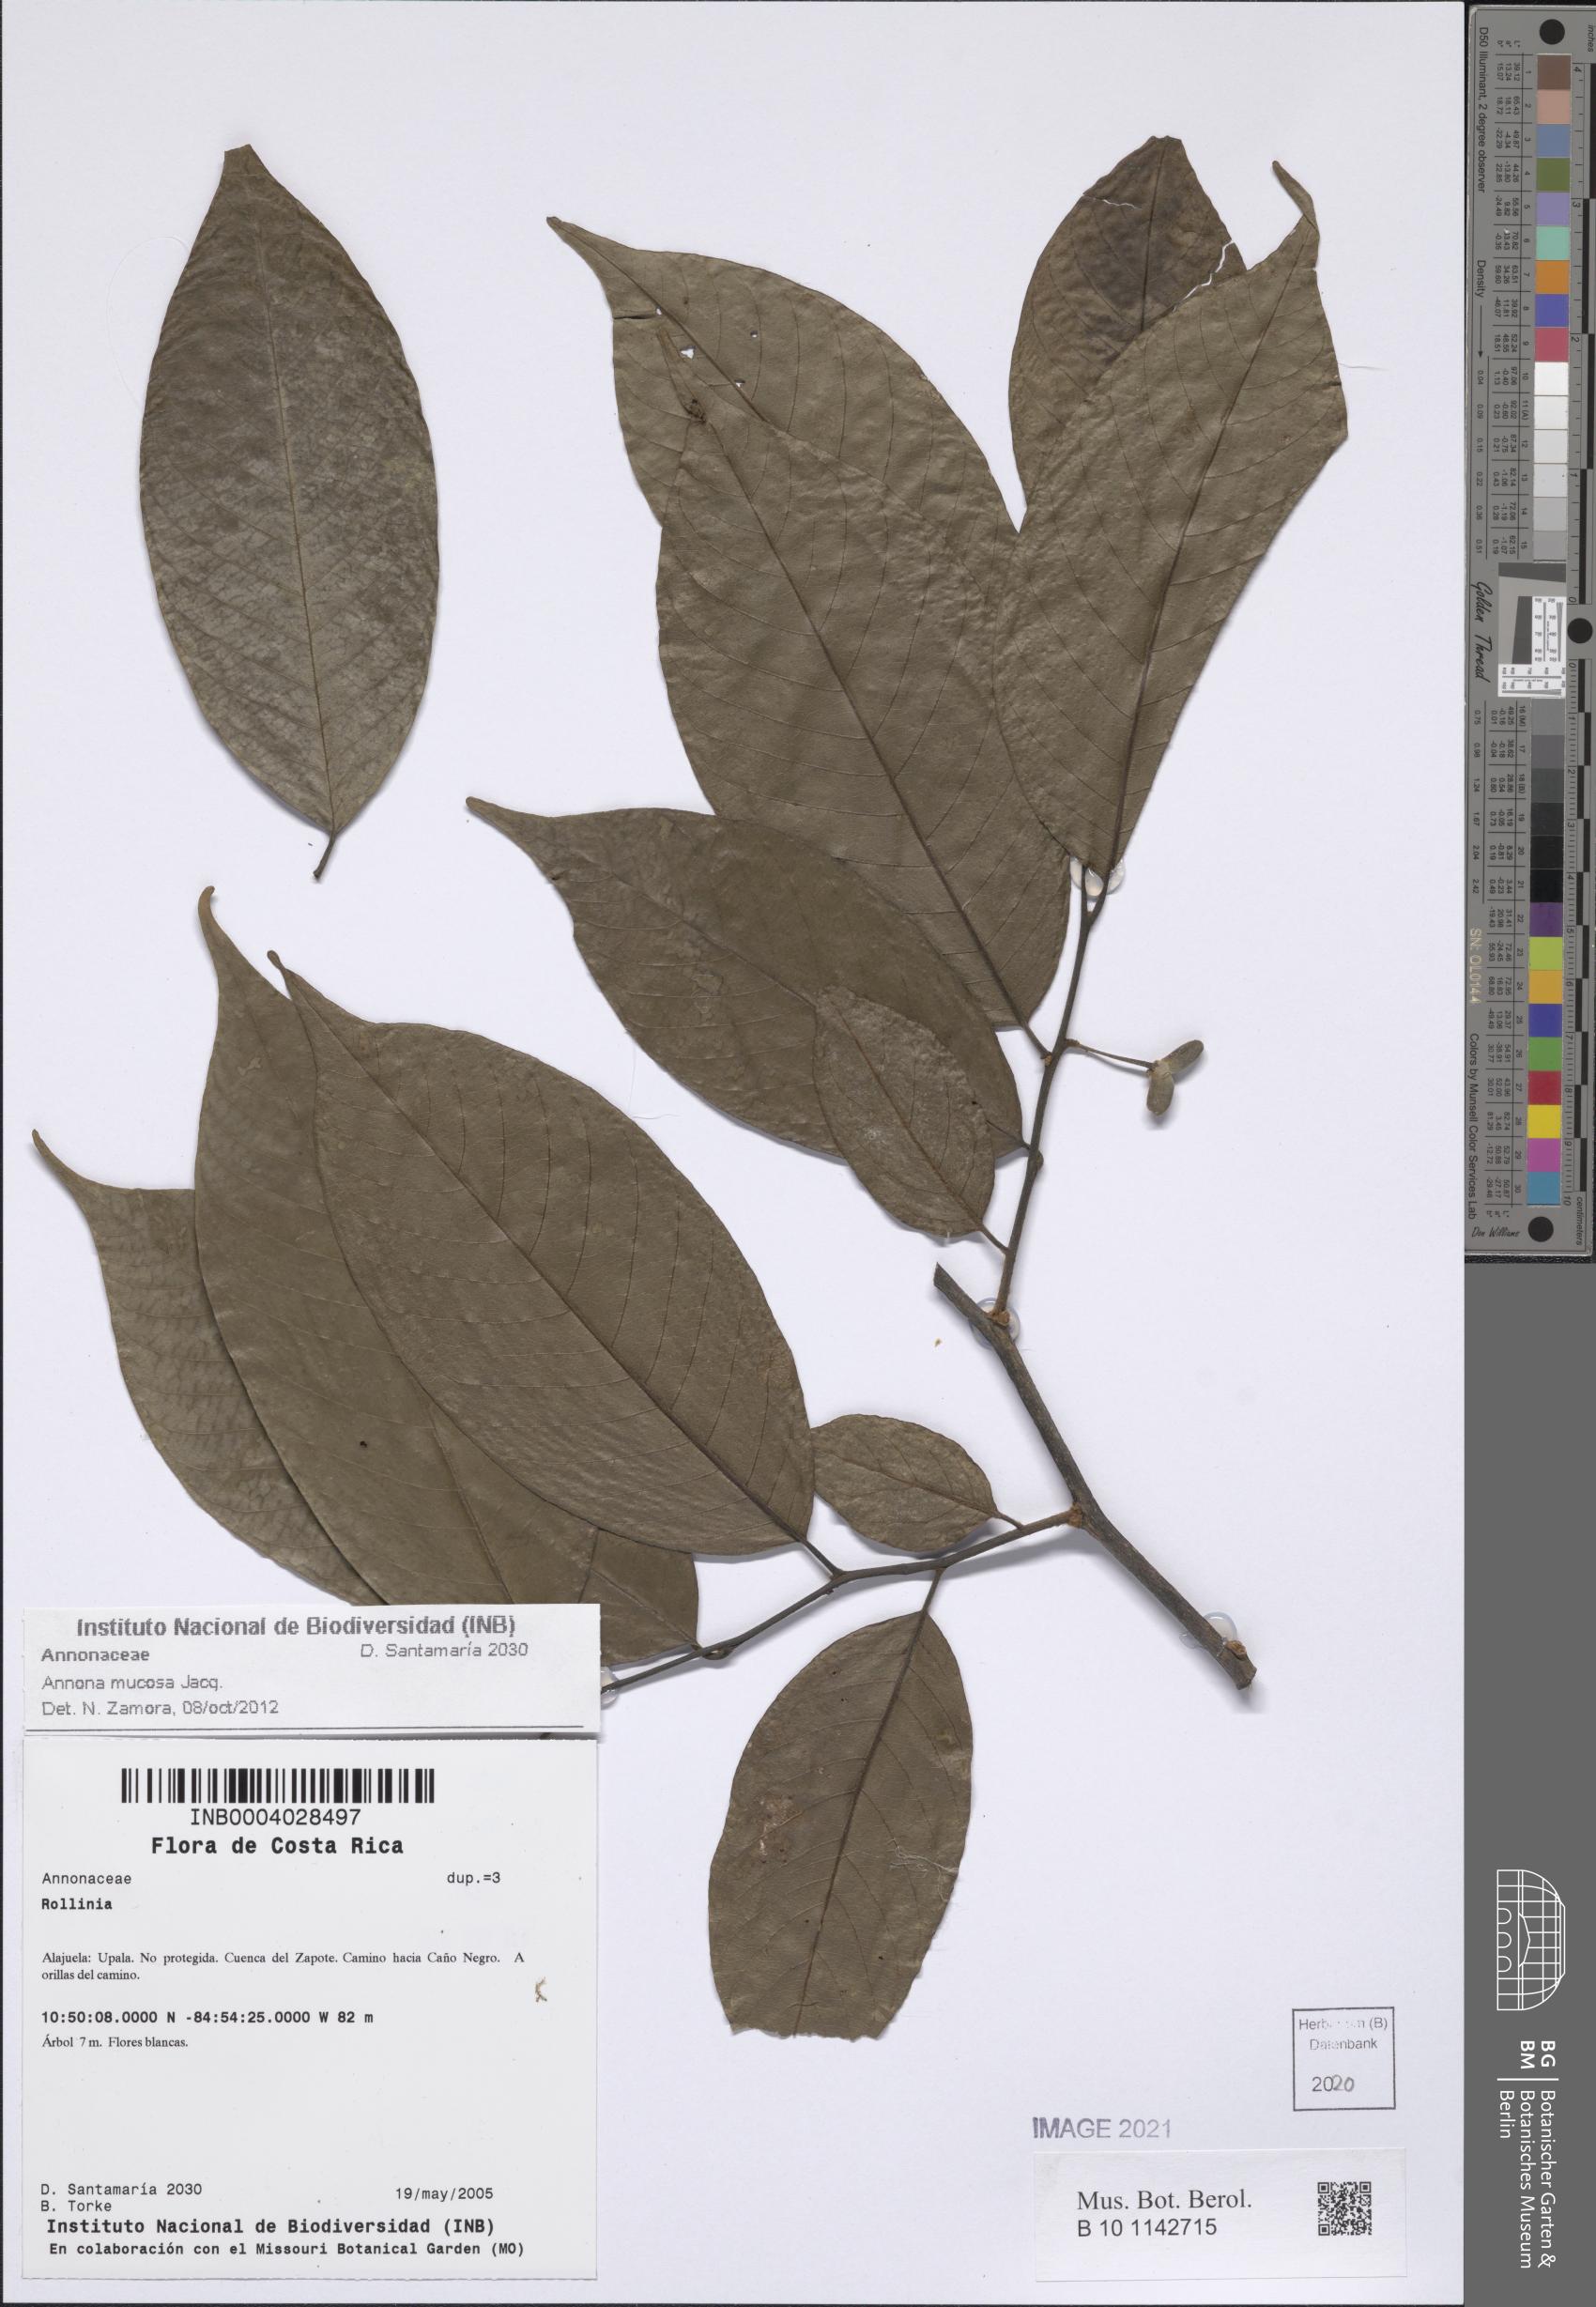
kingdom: Plantae
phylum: Tracheophyta
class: Magnoliopsida
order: Magnoliales
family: Annonaceae
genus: Annona
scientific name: Annona mucosa
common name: Sugar apple
